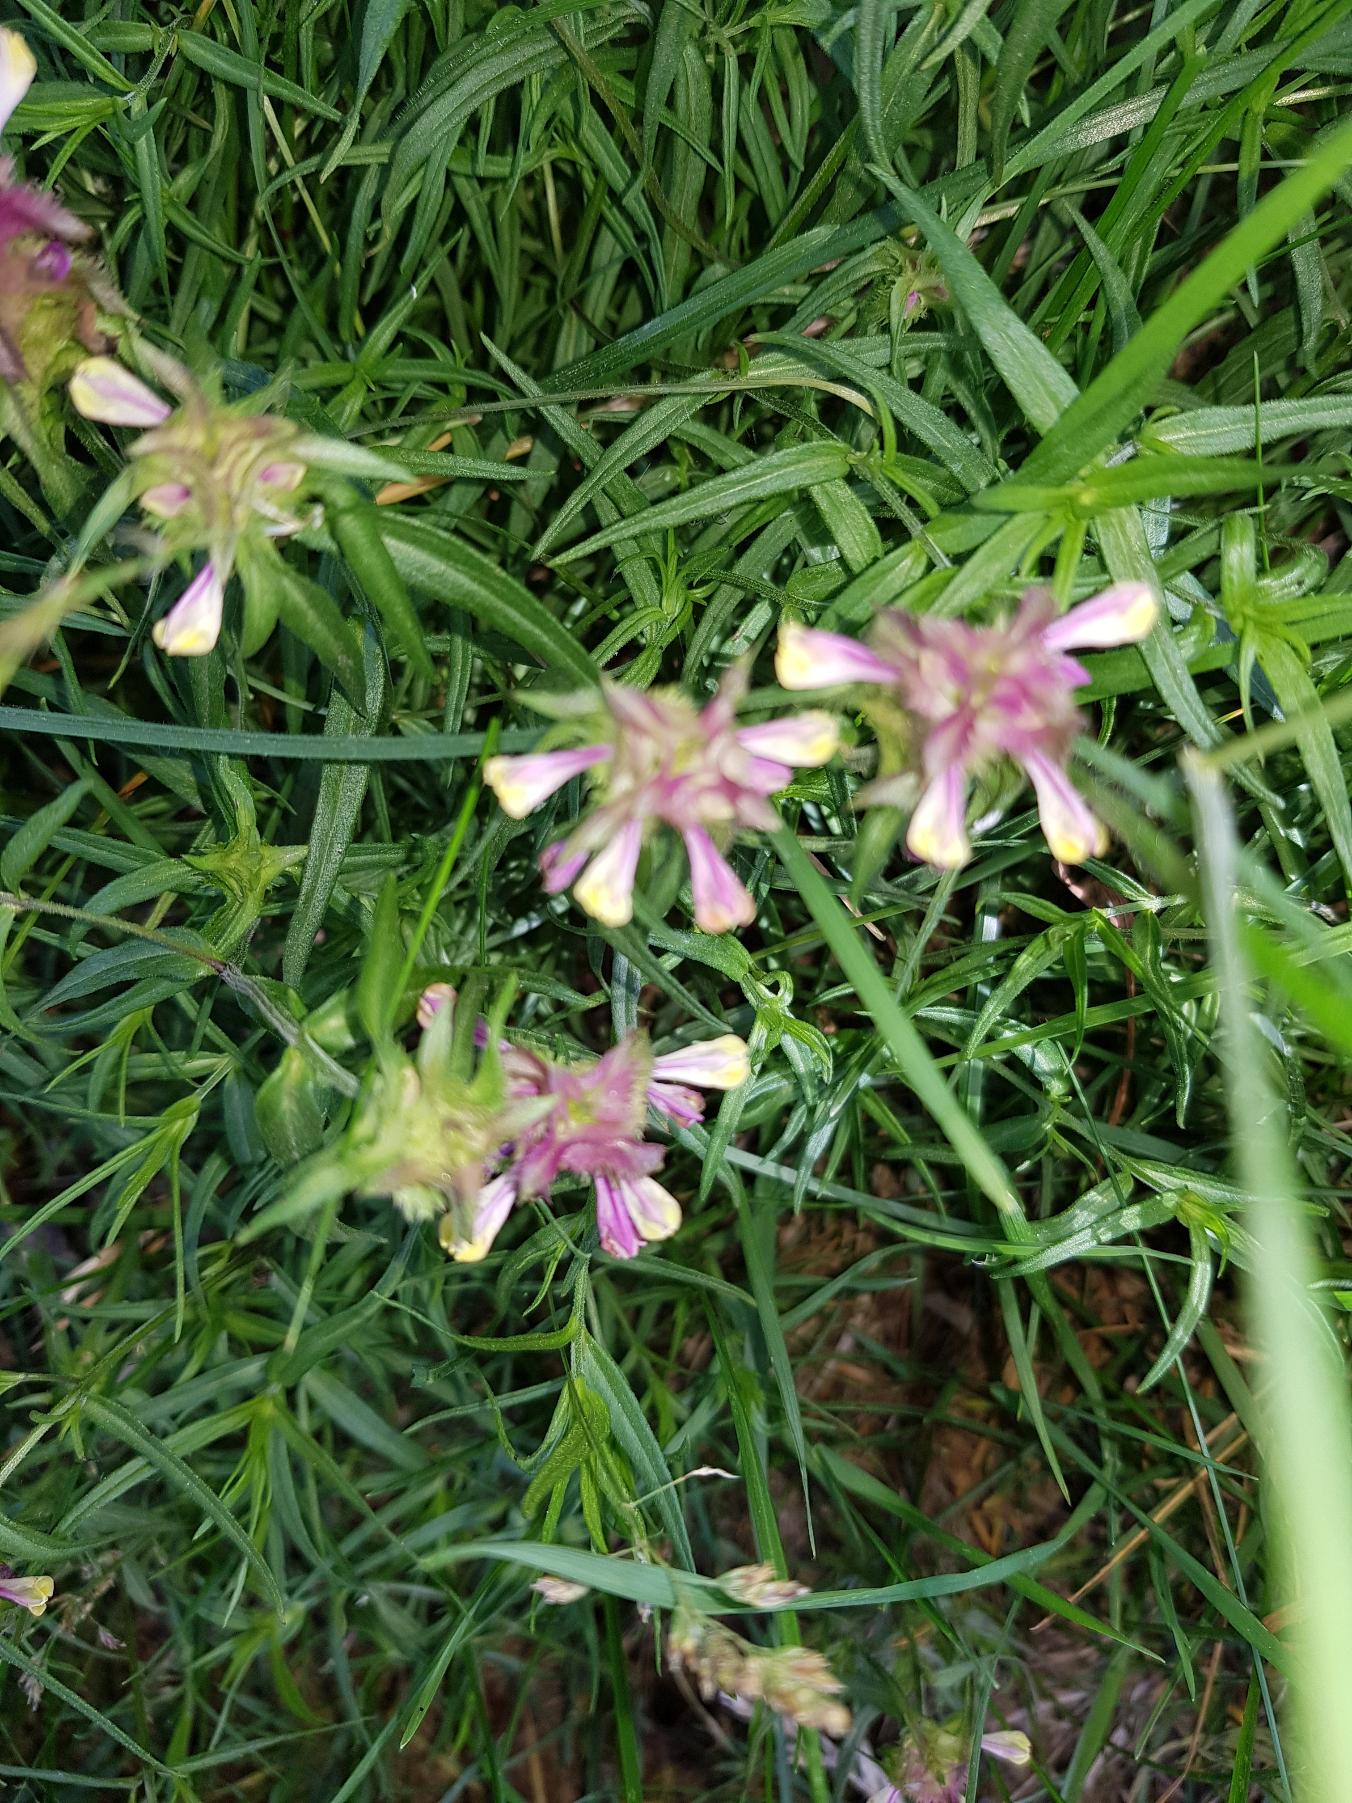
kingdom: Plantae
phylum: Tracheophyta
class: Magnoliopsida
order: Lamiales
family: Orobanchaceae
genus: Melampyrum
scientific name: Melampyrum cristatum
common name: Kantet kohvede
